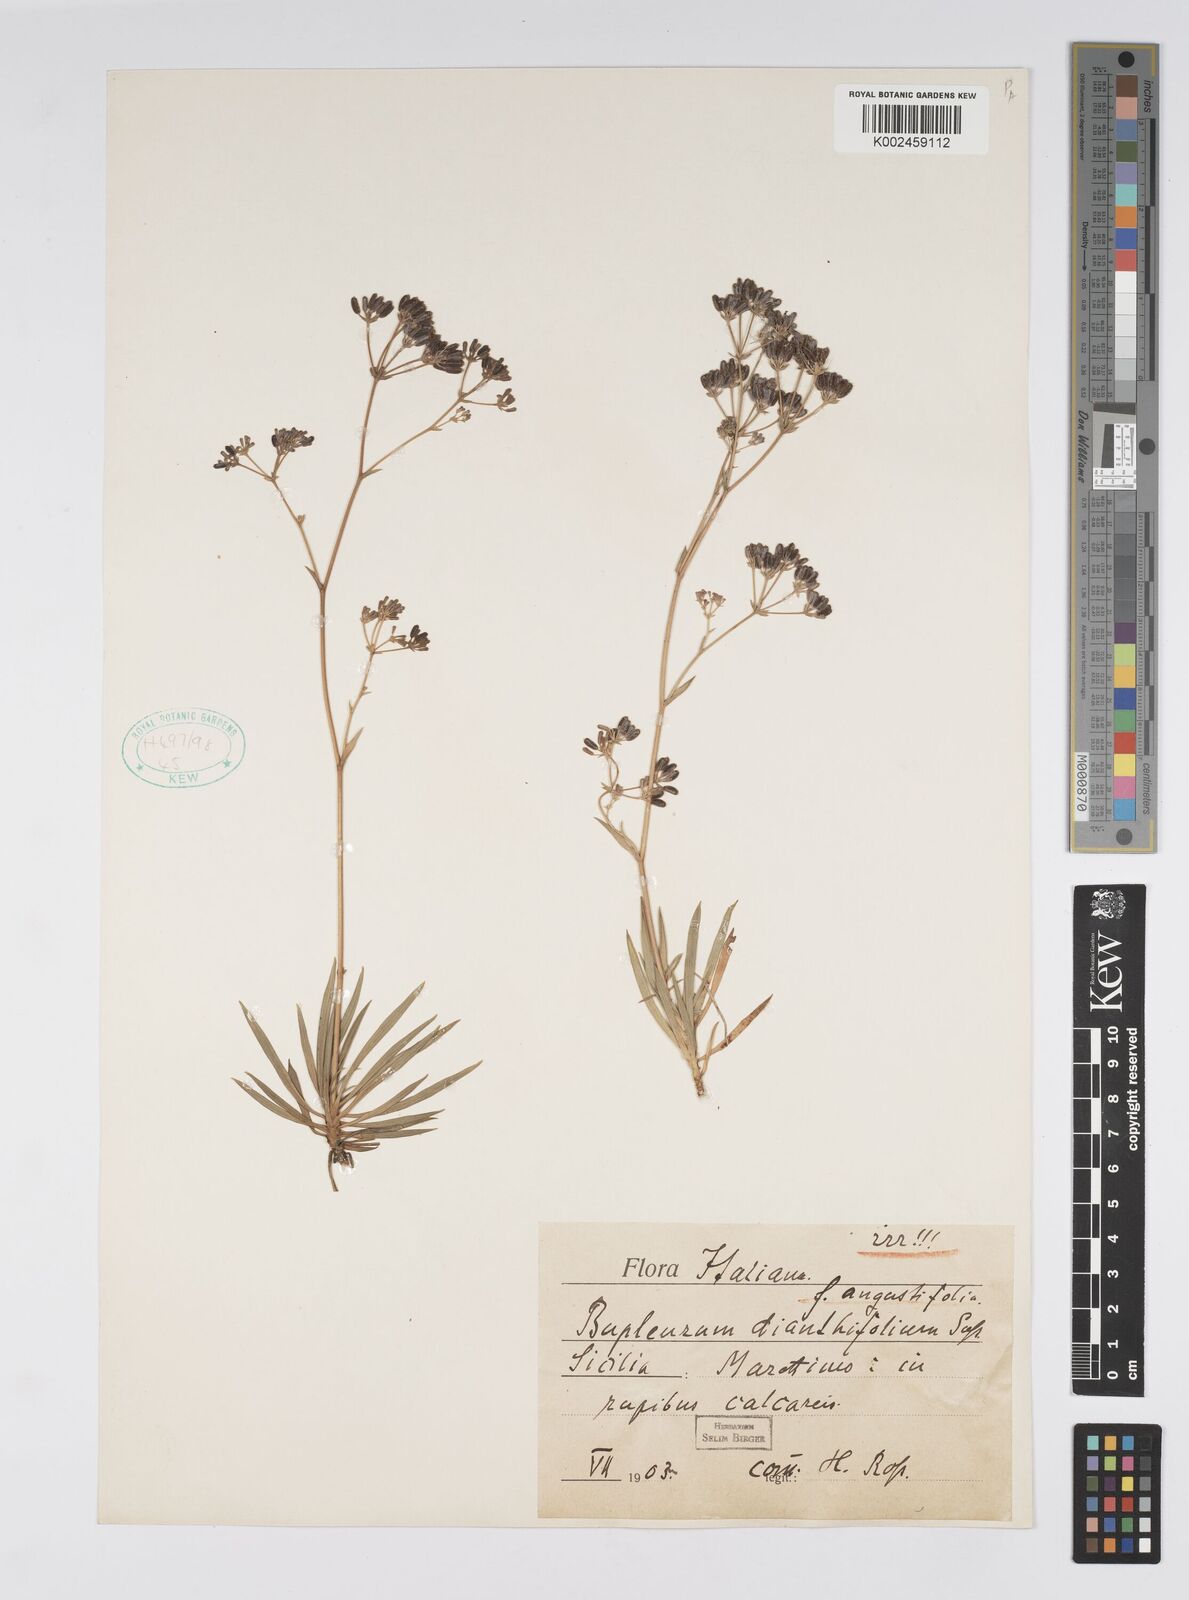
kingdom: Plantae
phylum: Tracheophyta
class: Magnoliopsida
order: Apiales
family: Apiaceae
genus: Bupleurum
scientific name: Bupleurum dianthifolium
